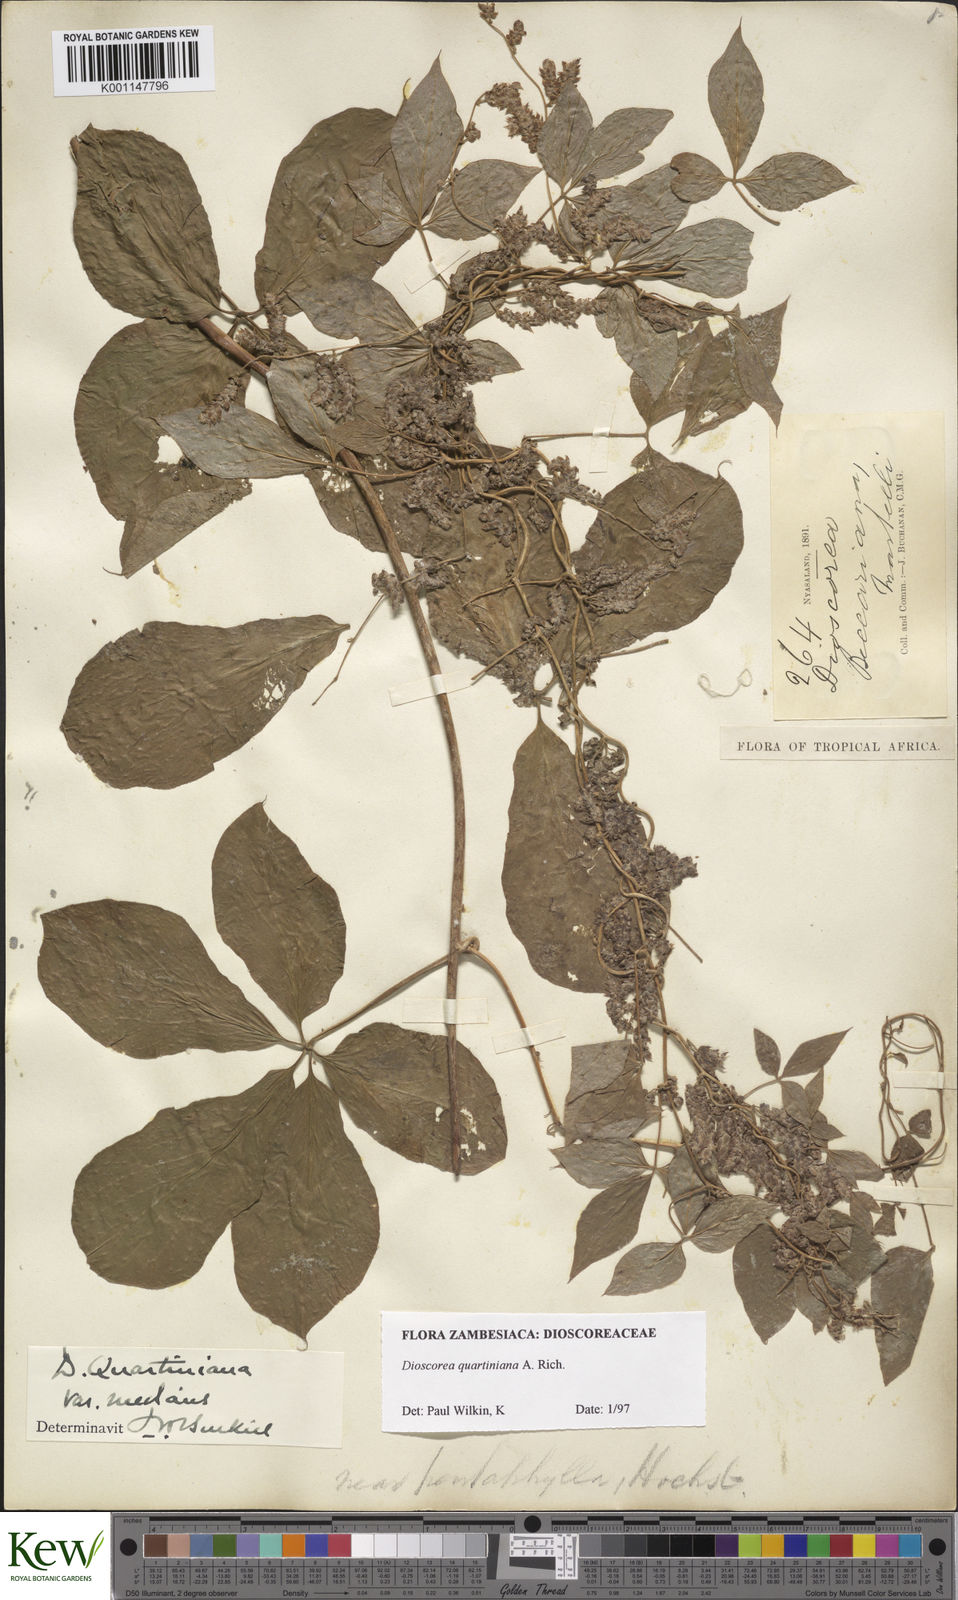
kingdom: Plantae
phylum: Tracheophyta
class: Liliopsida
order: Dioscoreales
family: Dioscoreaceae
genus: Dioscorea
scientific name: Dioscorea quartiniana
